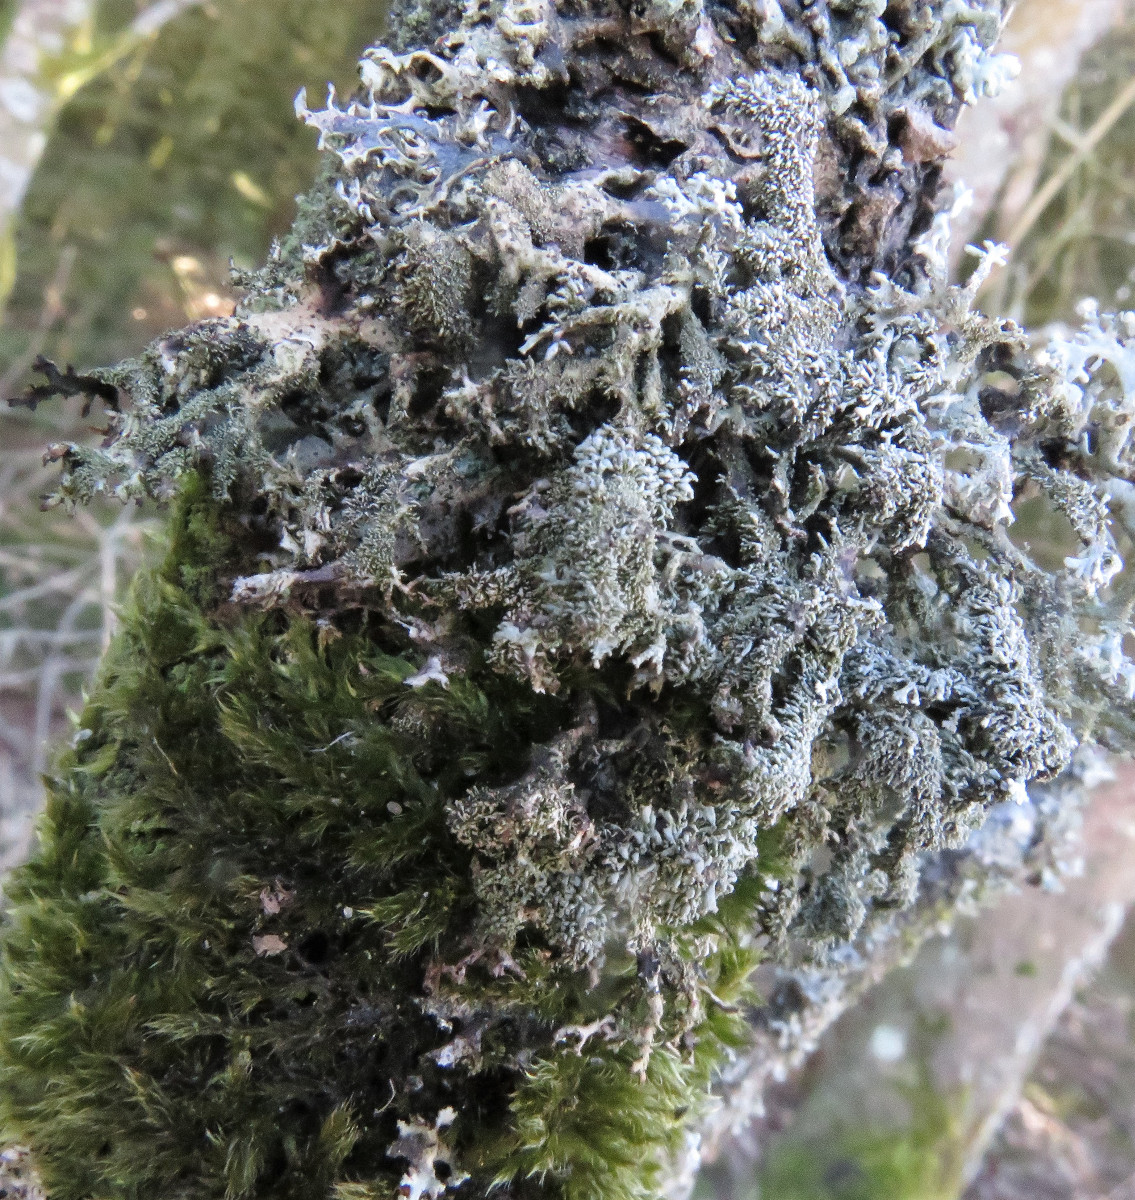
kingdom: Fungi
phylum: Ascomycota
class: Lecanoromycetes
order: Lecanorales
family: Parmeliaceae
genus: Pseudevernia
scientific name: Pseudevernia furfuracea
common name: grå fyrrelav
